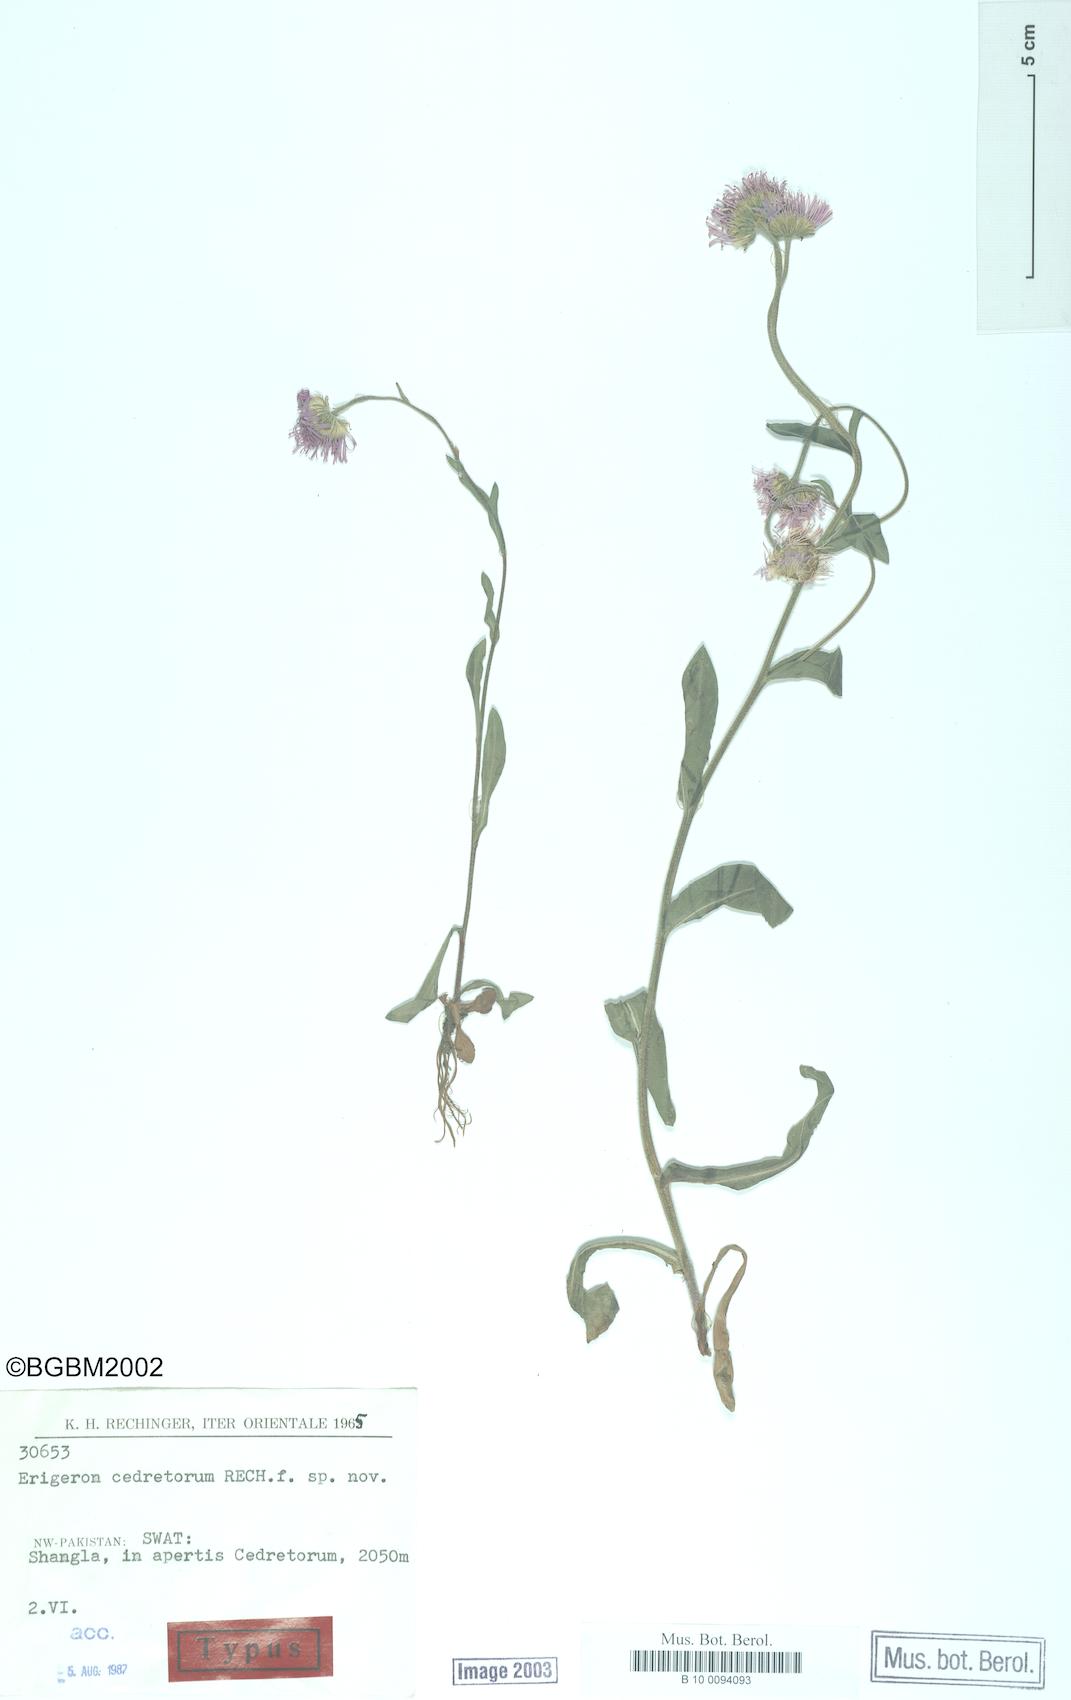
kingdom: Plantae
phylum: Tracheophyta
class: Magnoliopsida
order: Asterales
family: Asteraceae
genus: Erigeron
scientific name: Erigeron cedretorum
